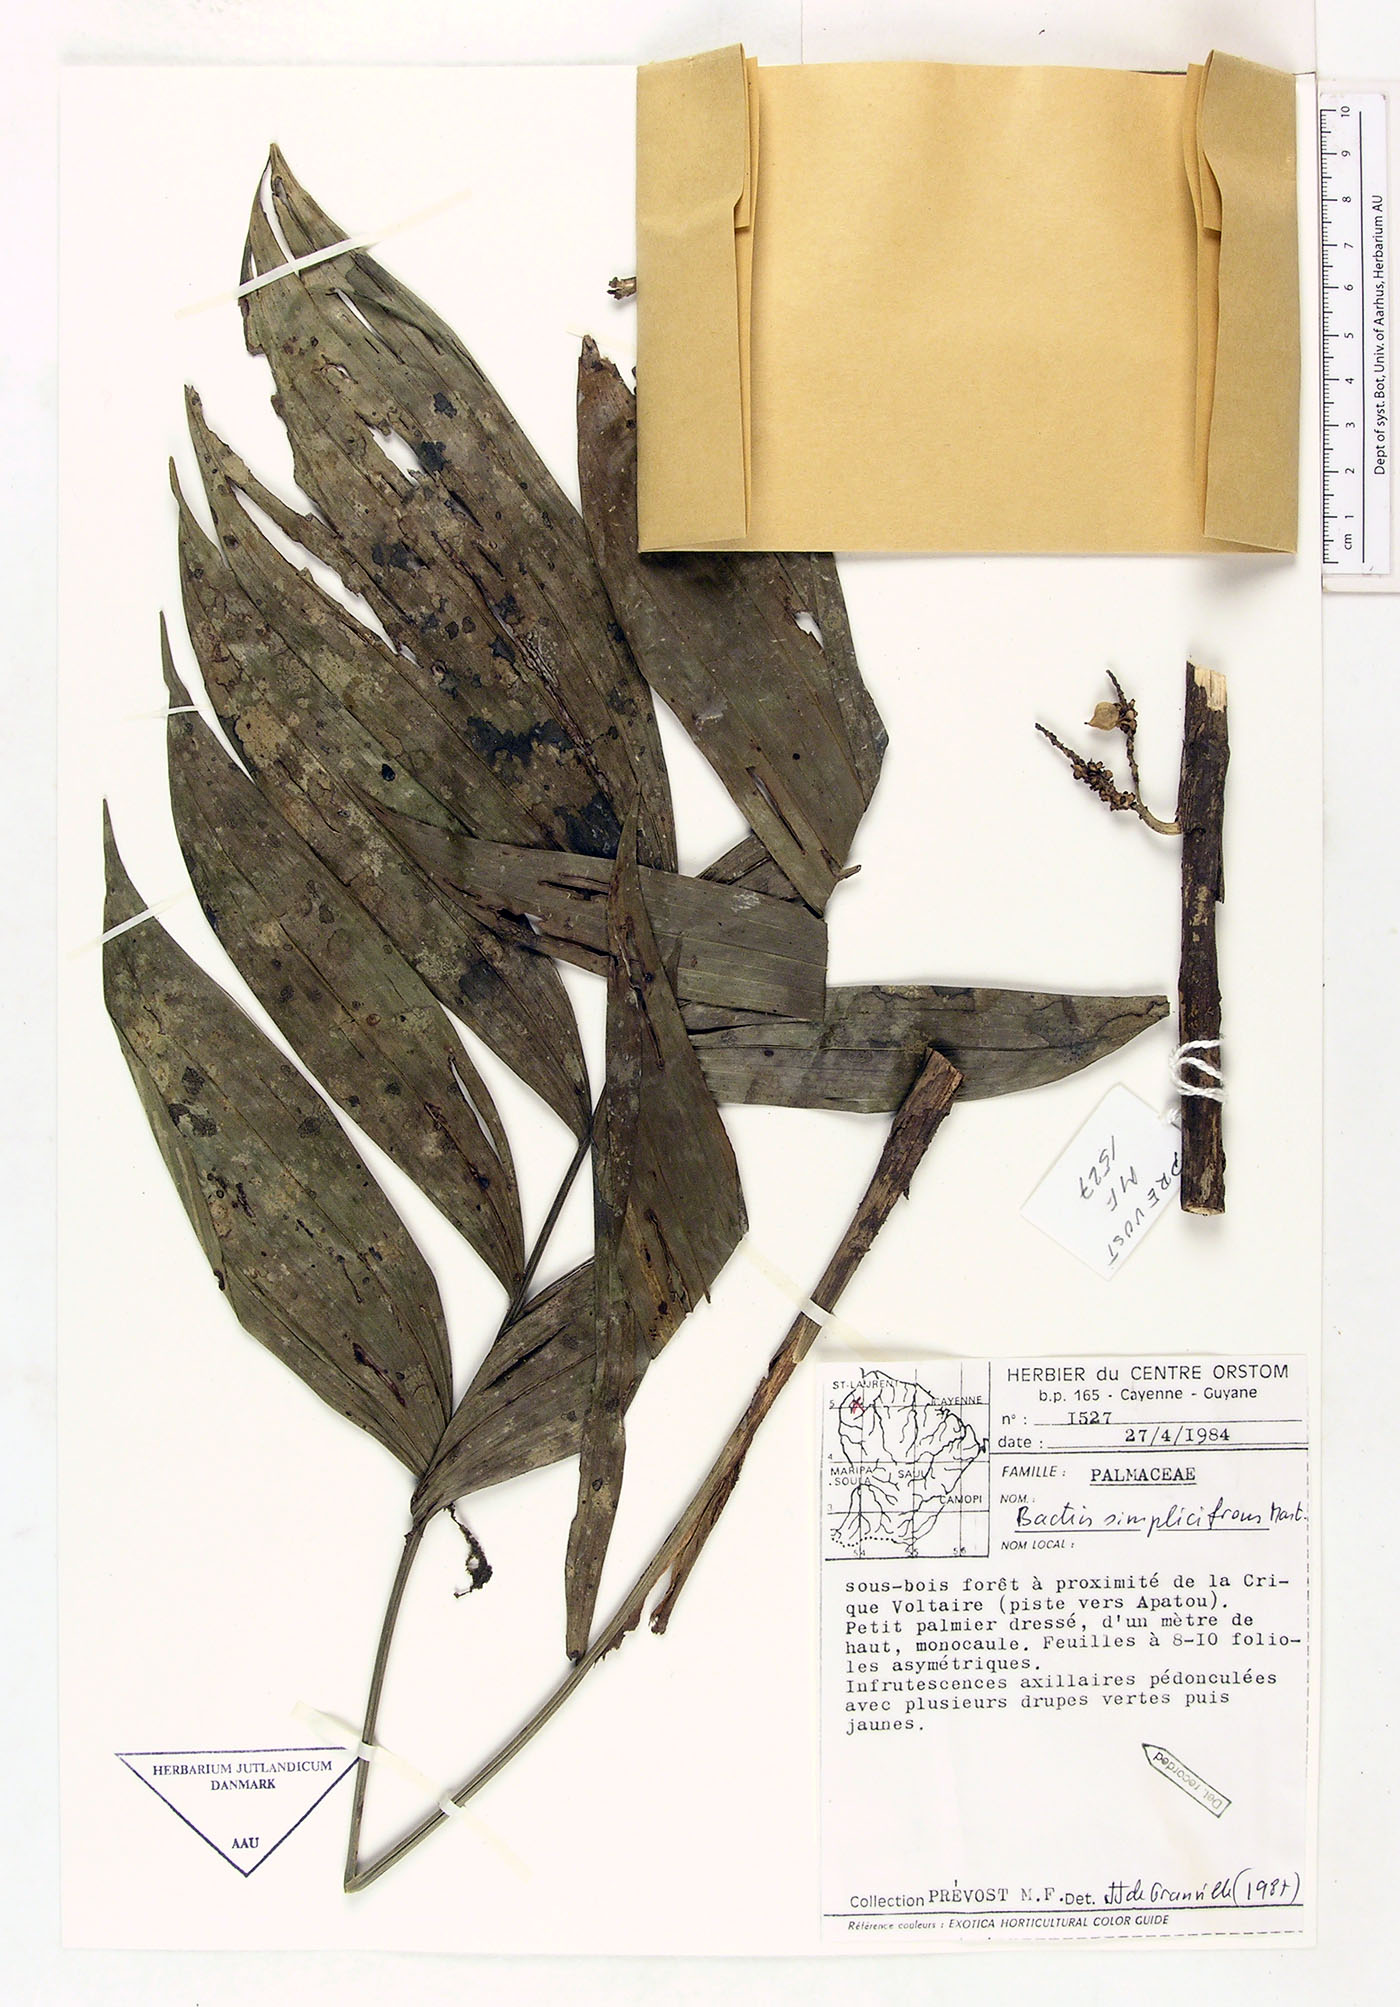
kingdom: Plantae
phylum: Tracheophyta
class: Liliopsida
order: Arecales
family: Arecaceae
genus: Bactris
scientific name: Bactris simplicifrons
